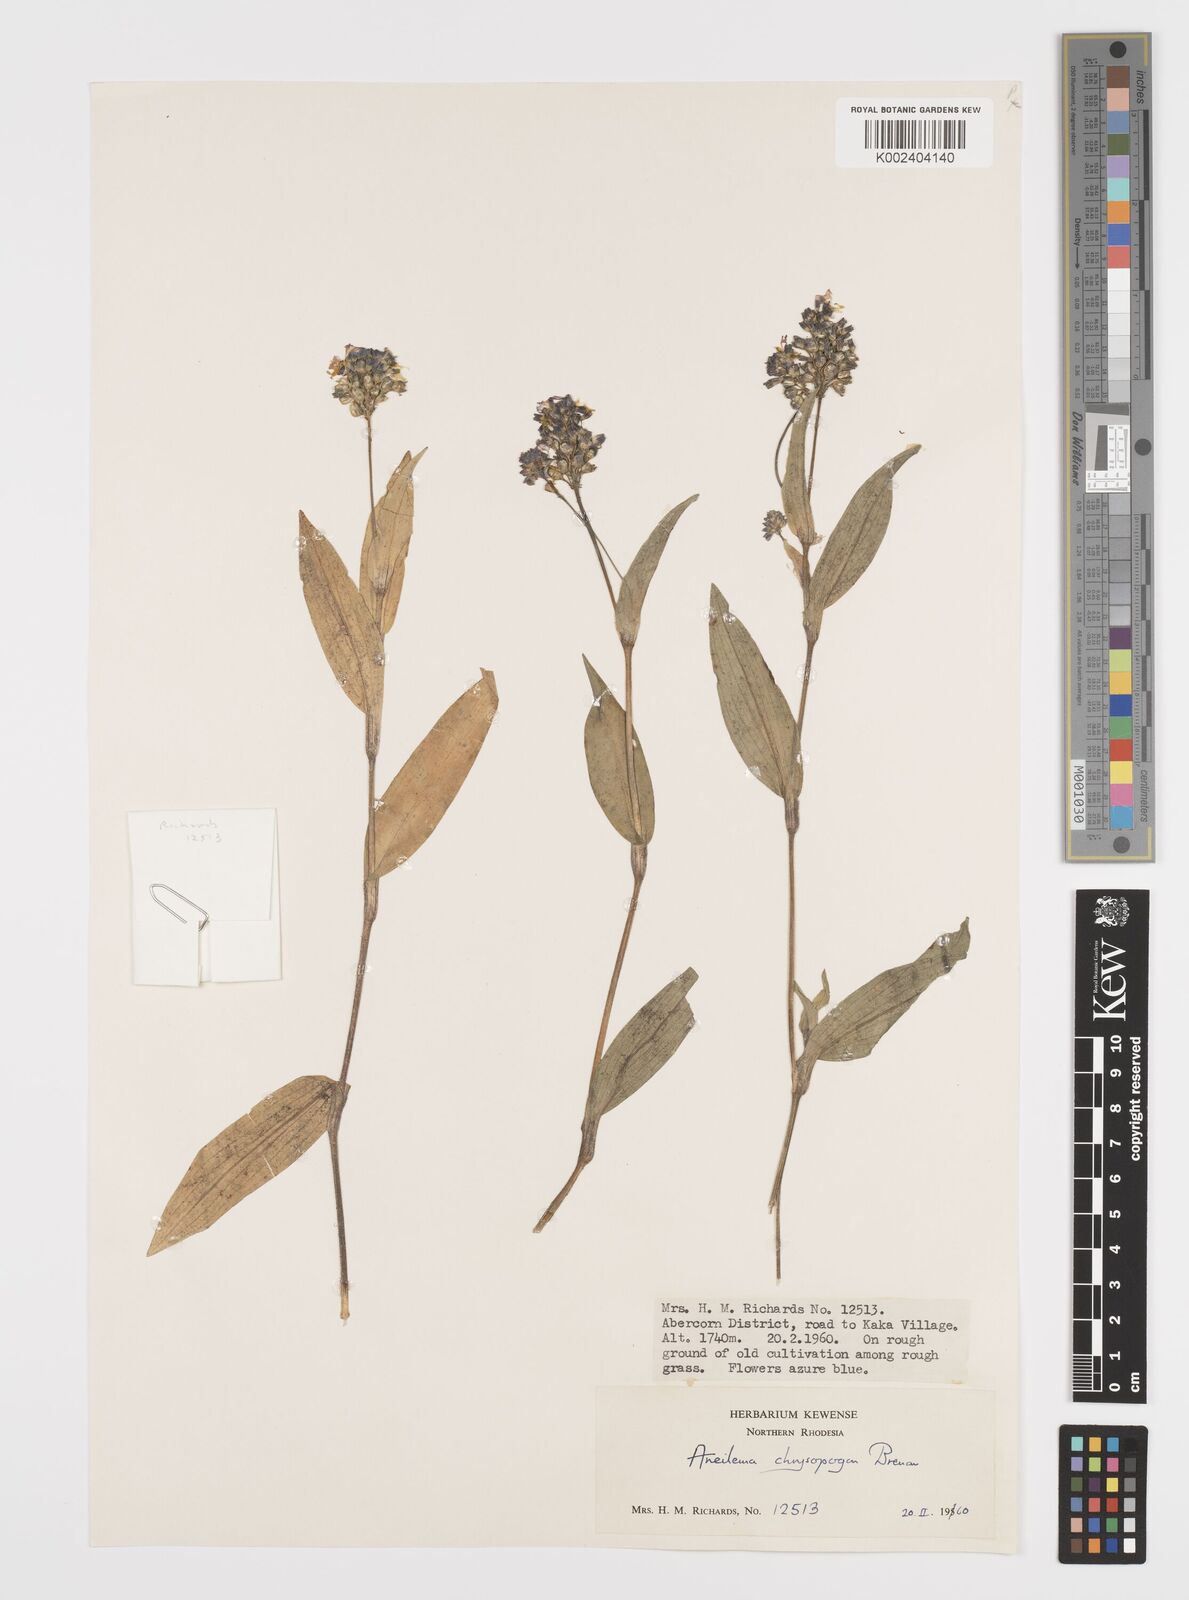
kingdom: Plantae
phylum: Tracheophyta
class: Liliopsida
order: Commelinales
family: Commelinaceae
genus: Aneilema
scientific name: Aneilema chrysopogon
